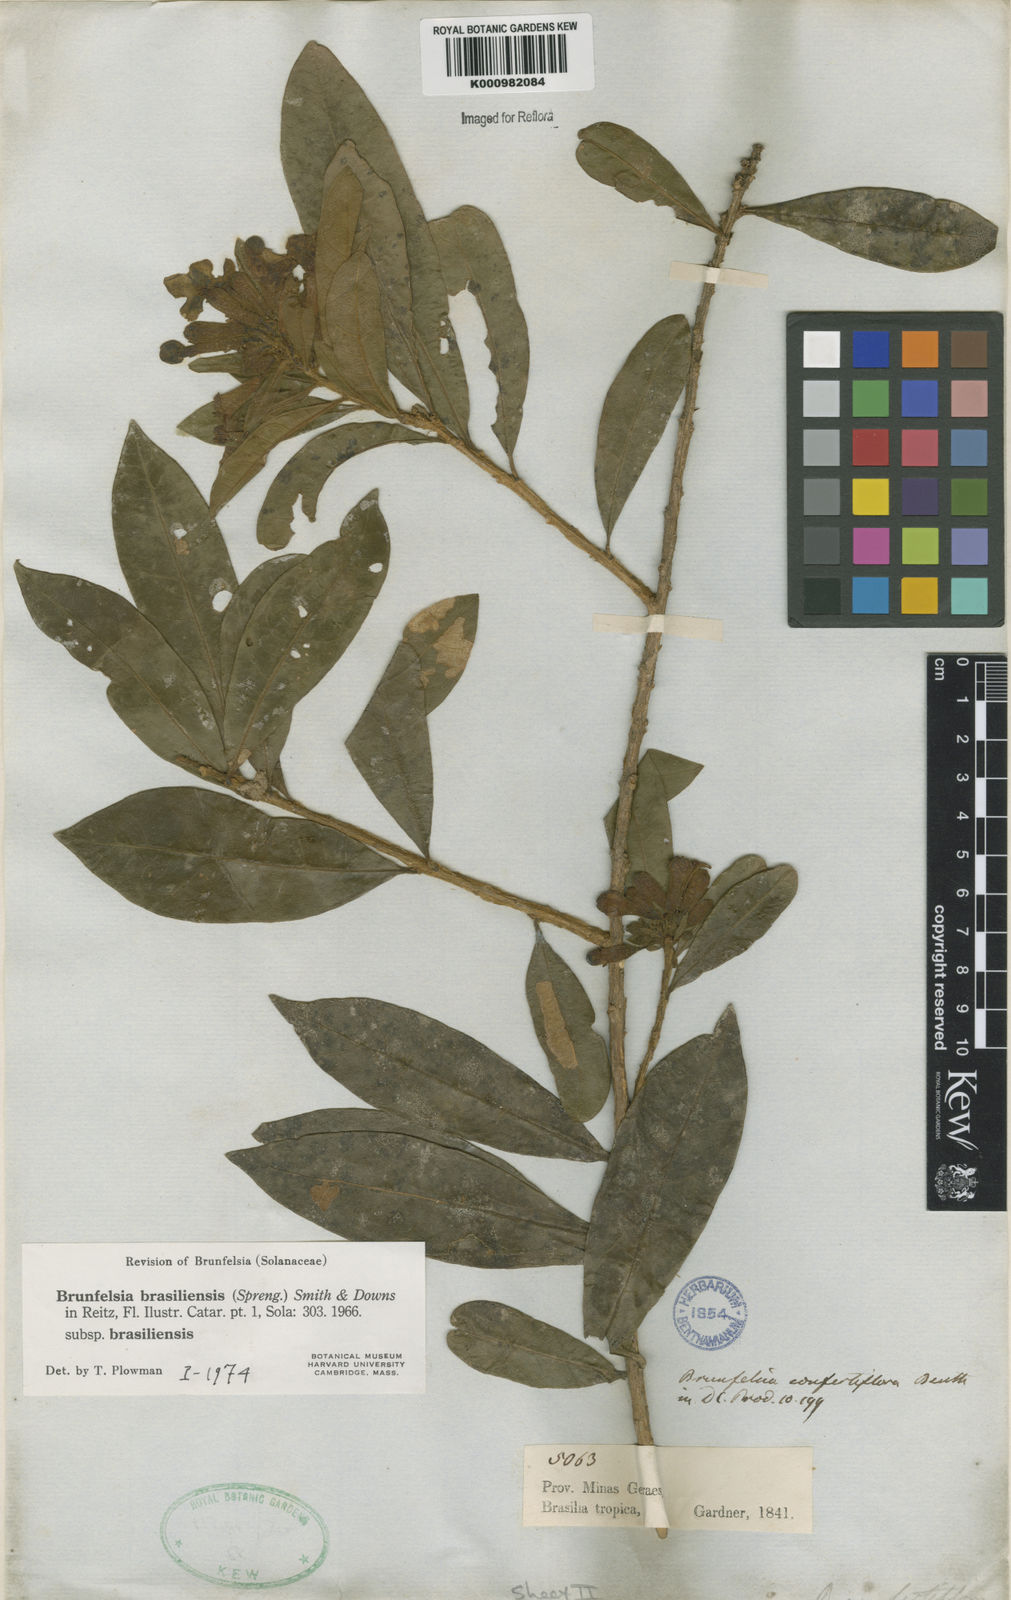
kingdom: Plantae
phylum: Tracheophyta
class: Magnoliopsida
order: Solanales
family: Solanaceae
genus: Brunfelsia
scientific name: Brunfelsia brasiliensis
